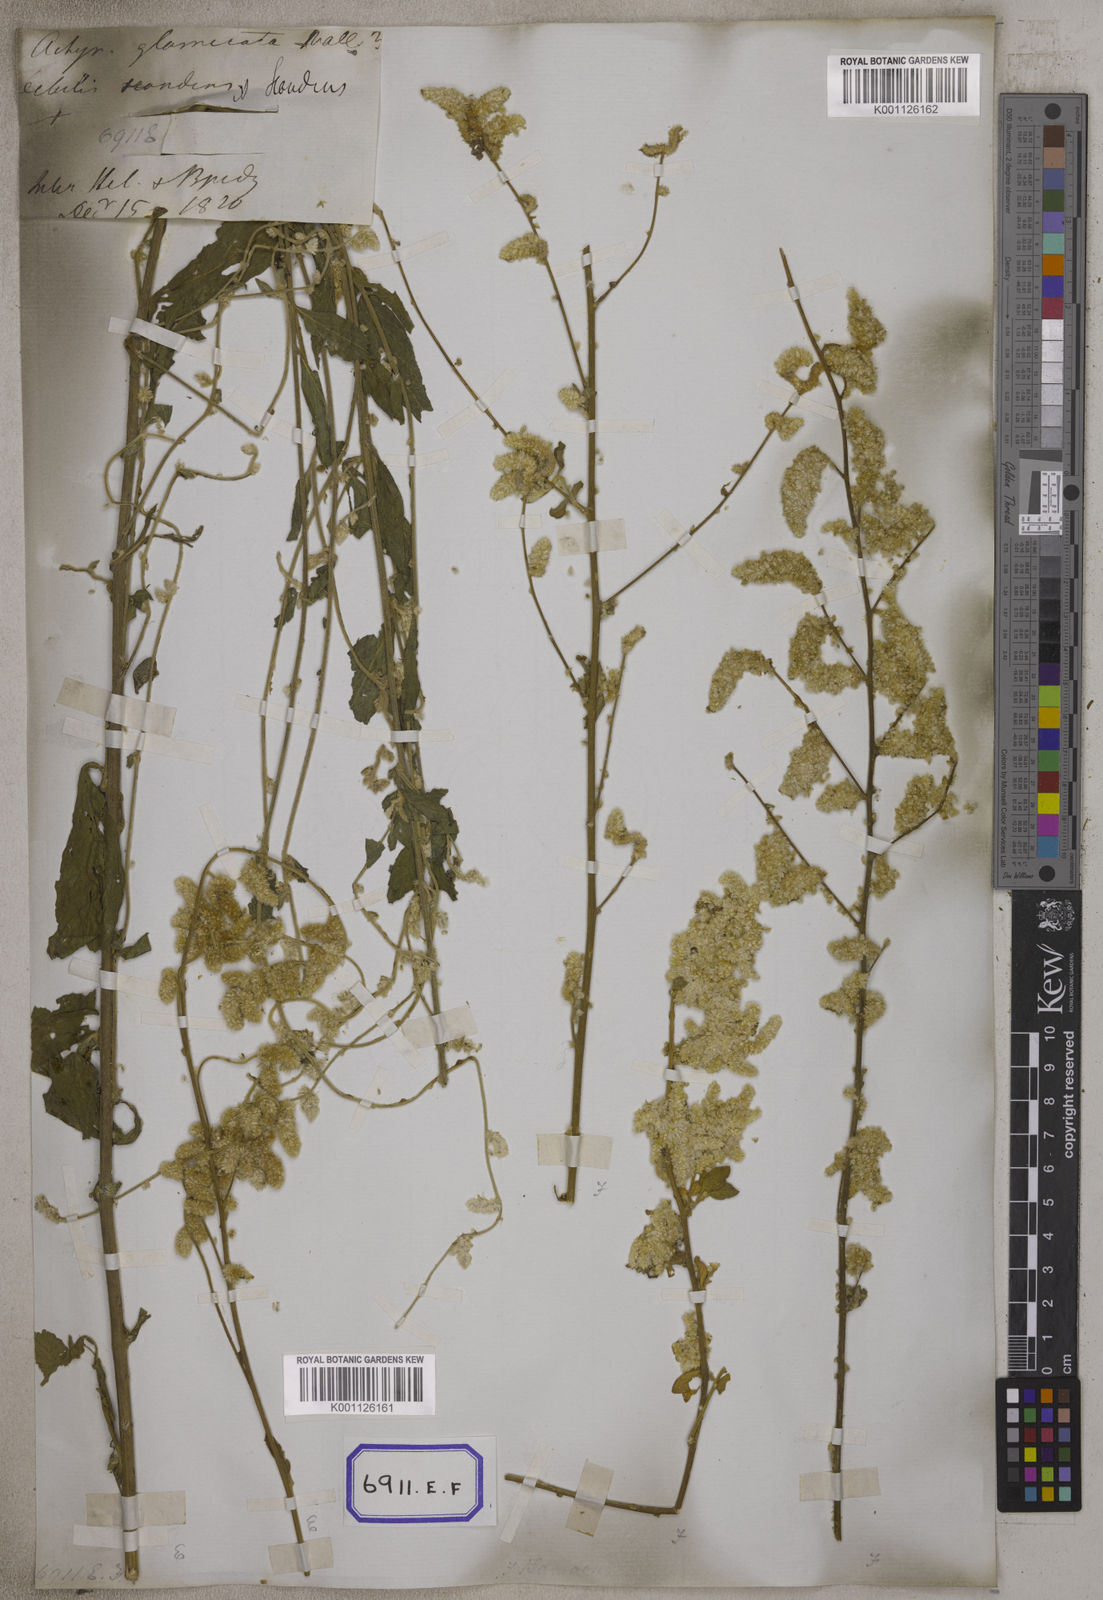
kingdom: Plantae
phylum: Tracheophyta
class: Magnoliopsida
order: Caryophyllales
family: Amaranthaceae
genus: Ouret
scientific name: Ouret sanguinolenta
